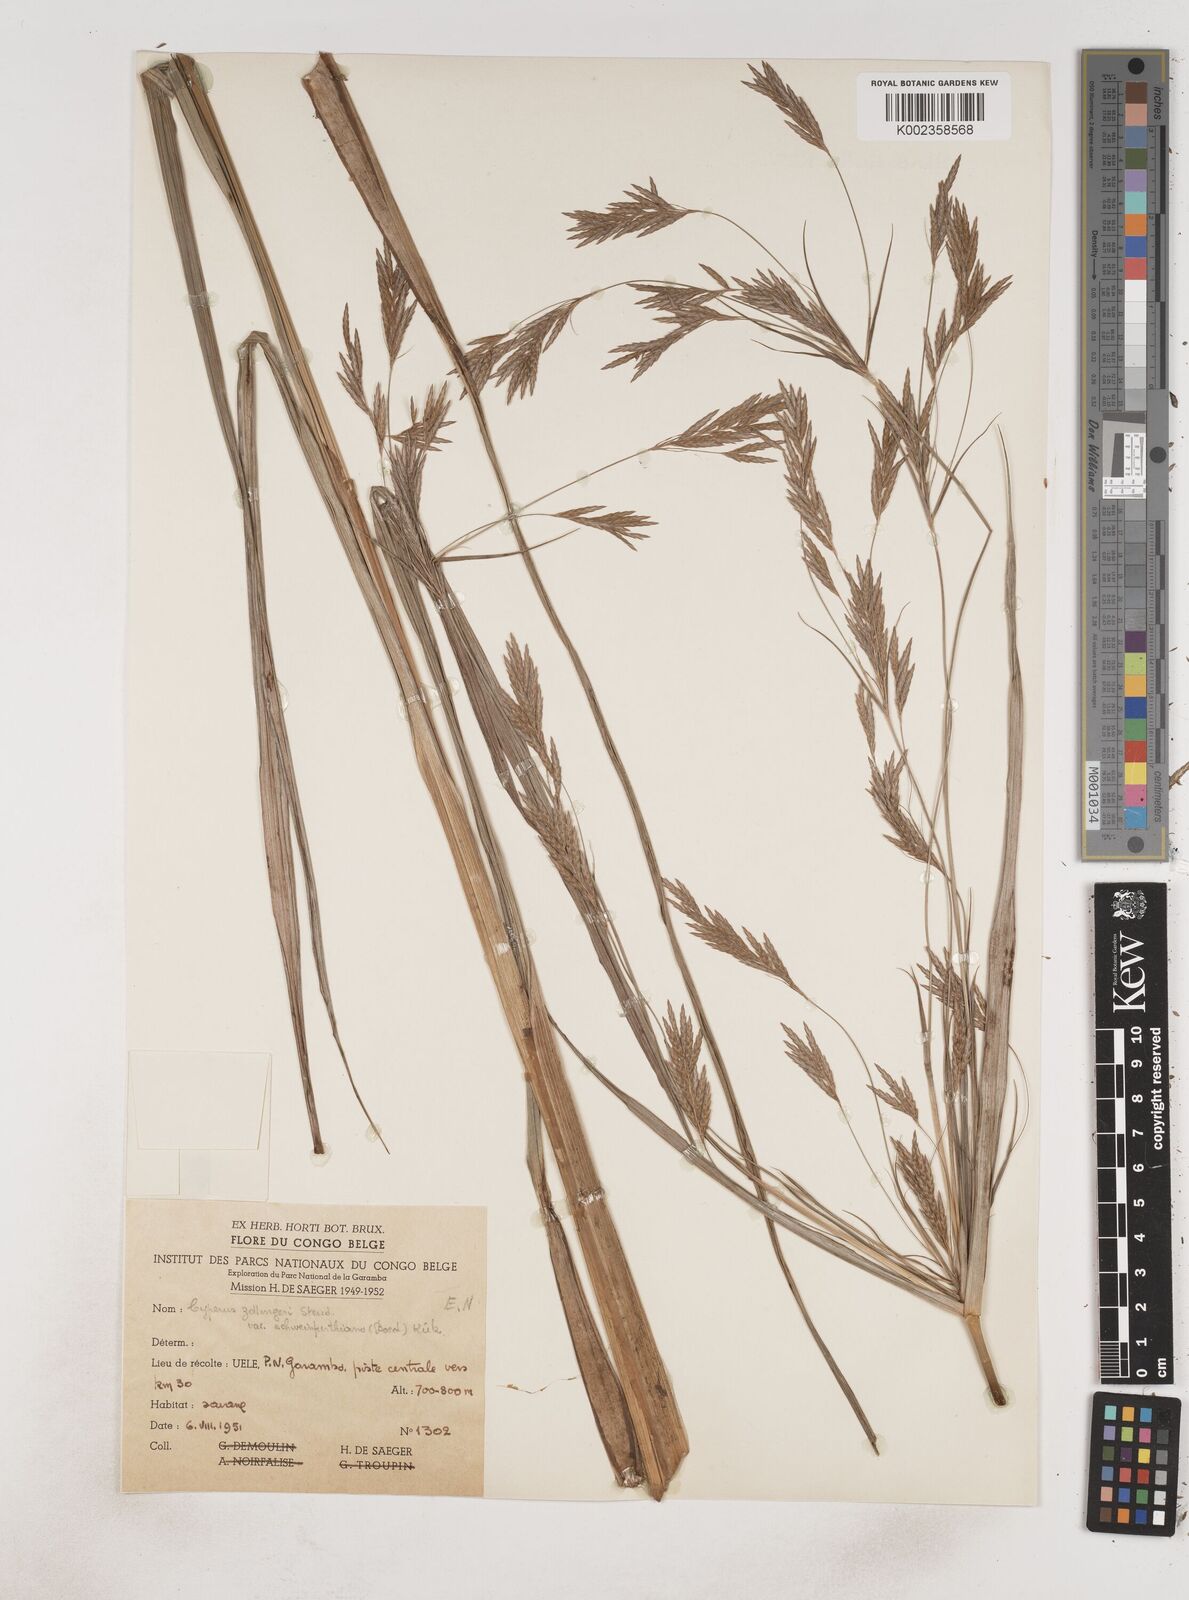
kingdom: Plantae
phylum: Tracheophyta
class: Liliopsida
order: Poales
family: Cyperaceae
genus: Cyperus
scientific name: Cyperus tenuiculmis
